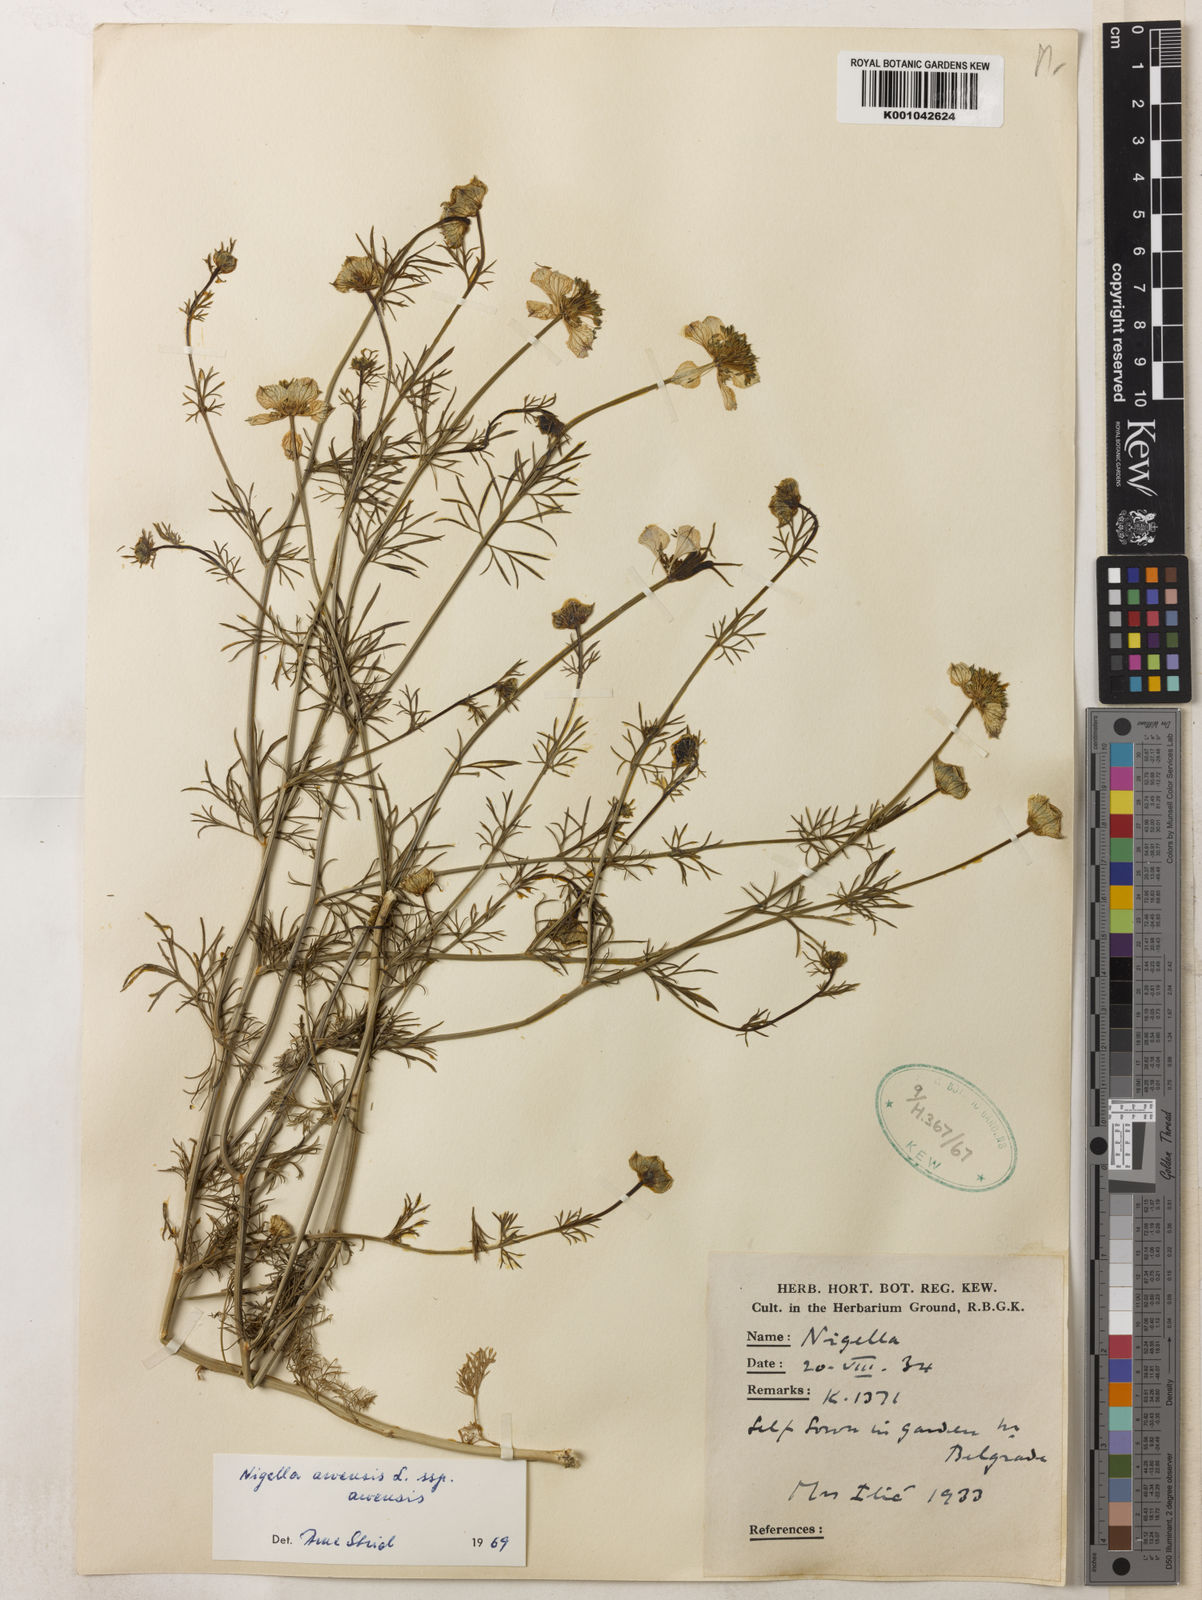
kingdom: Plantae
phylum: Tracheophyta
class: Magnoliopsida
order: Ranunculales
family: Ranunculaceae
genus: Nigella
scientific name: Nigella arvensis
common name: Wild fennel-flower
